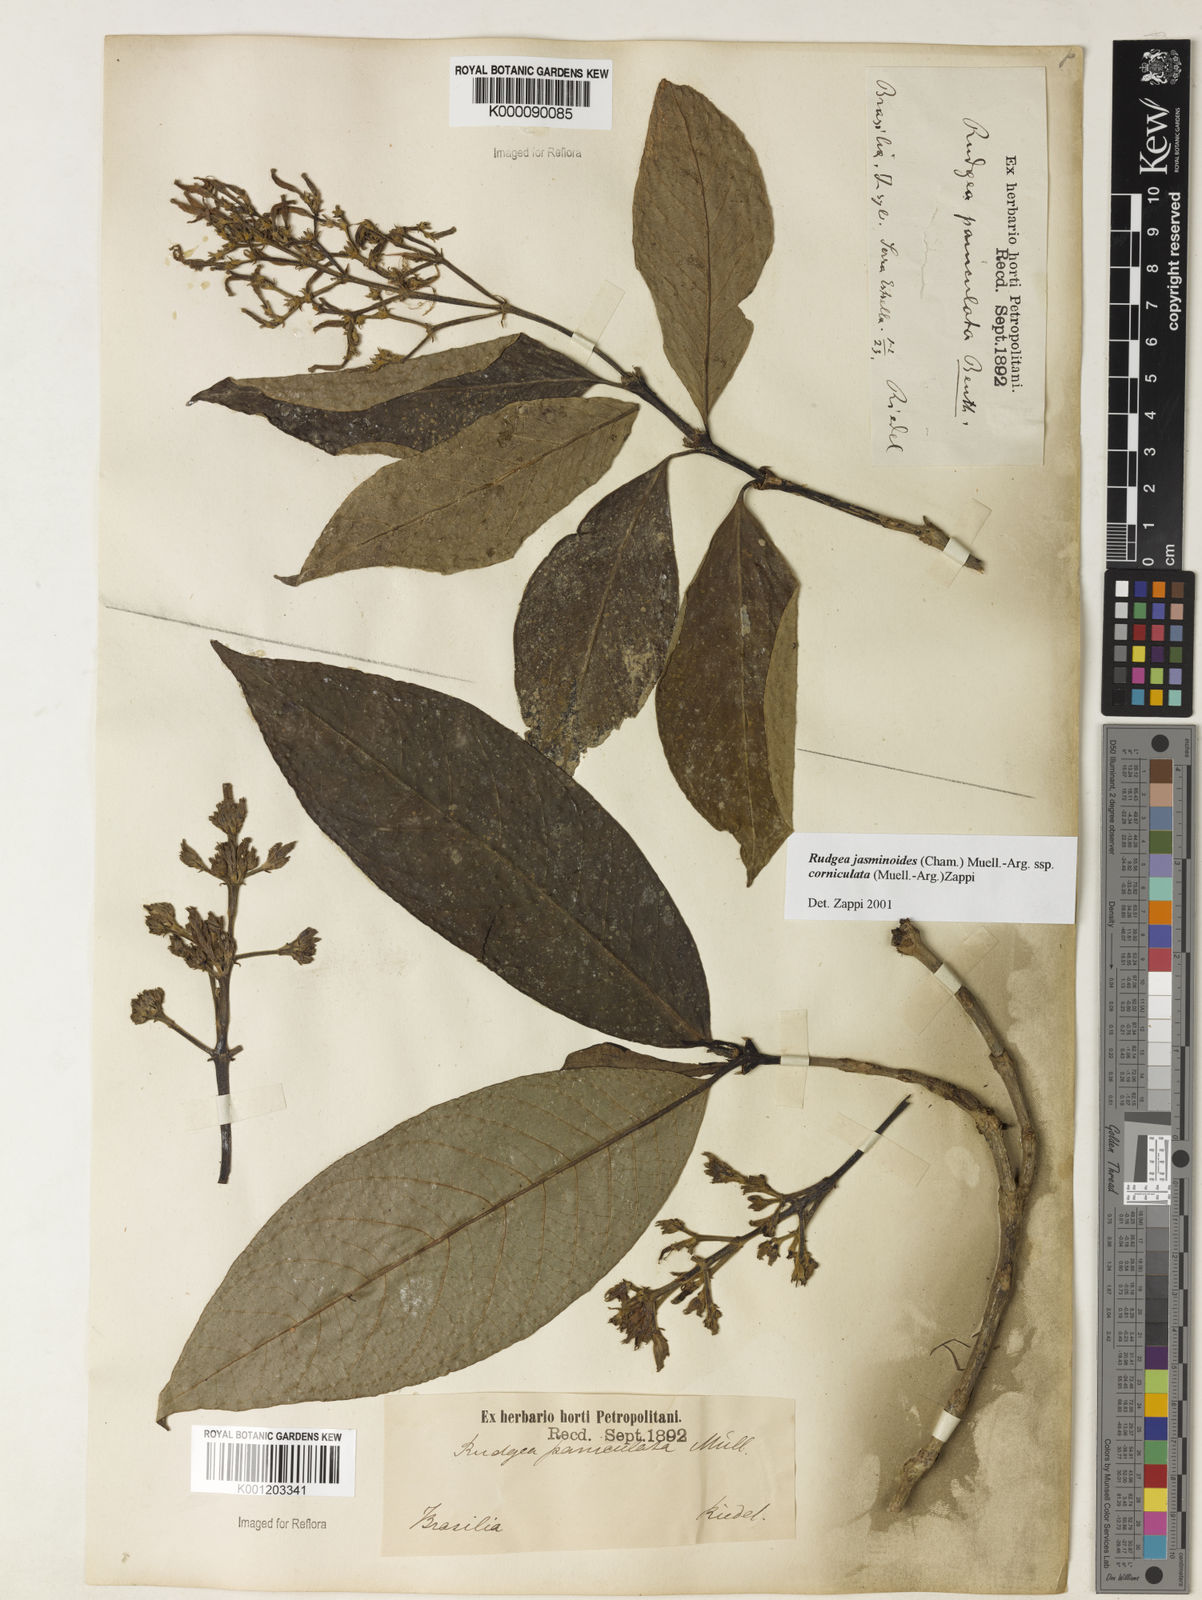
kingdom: Plantae
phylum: Tracheophyta
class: Magnoliopsida
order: Gentianales
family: Rubiaceae
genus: Rudgea
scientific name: Rudgea jasminoides
